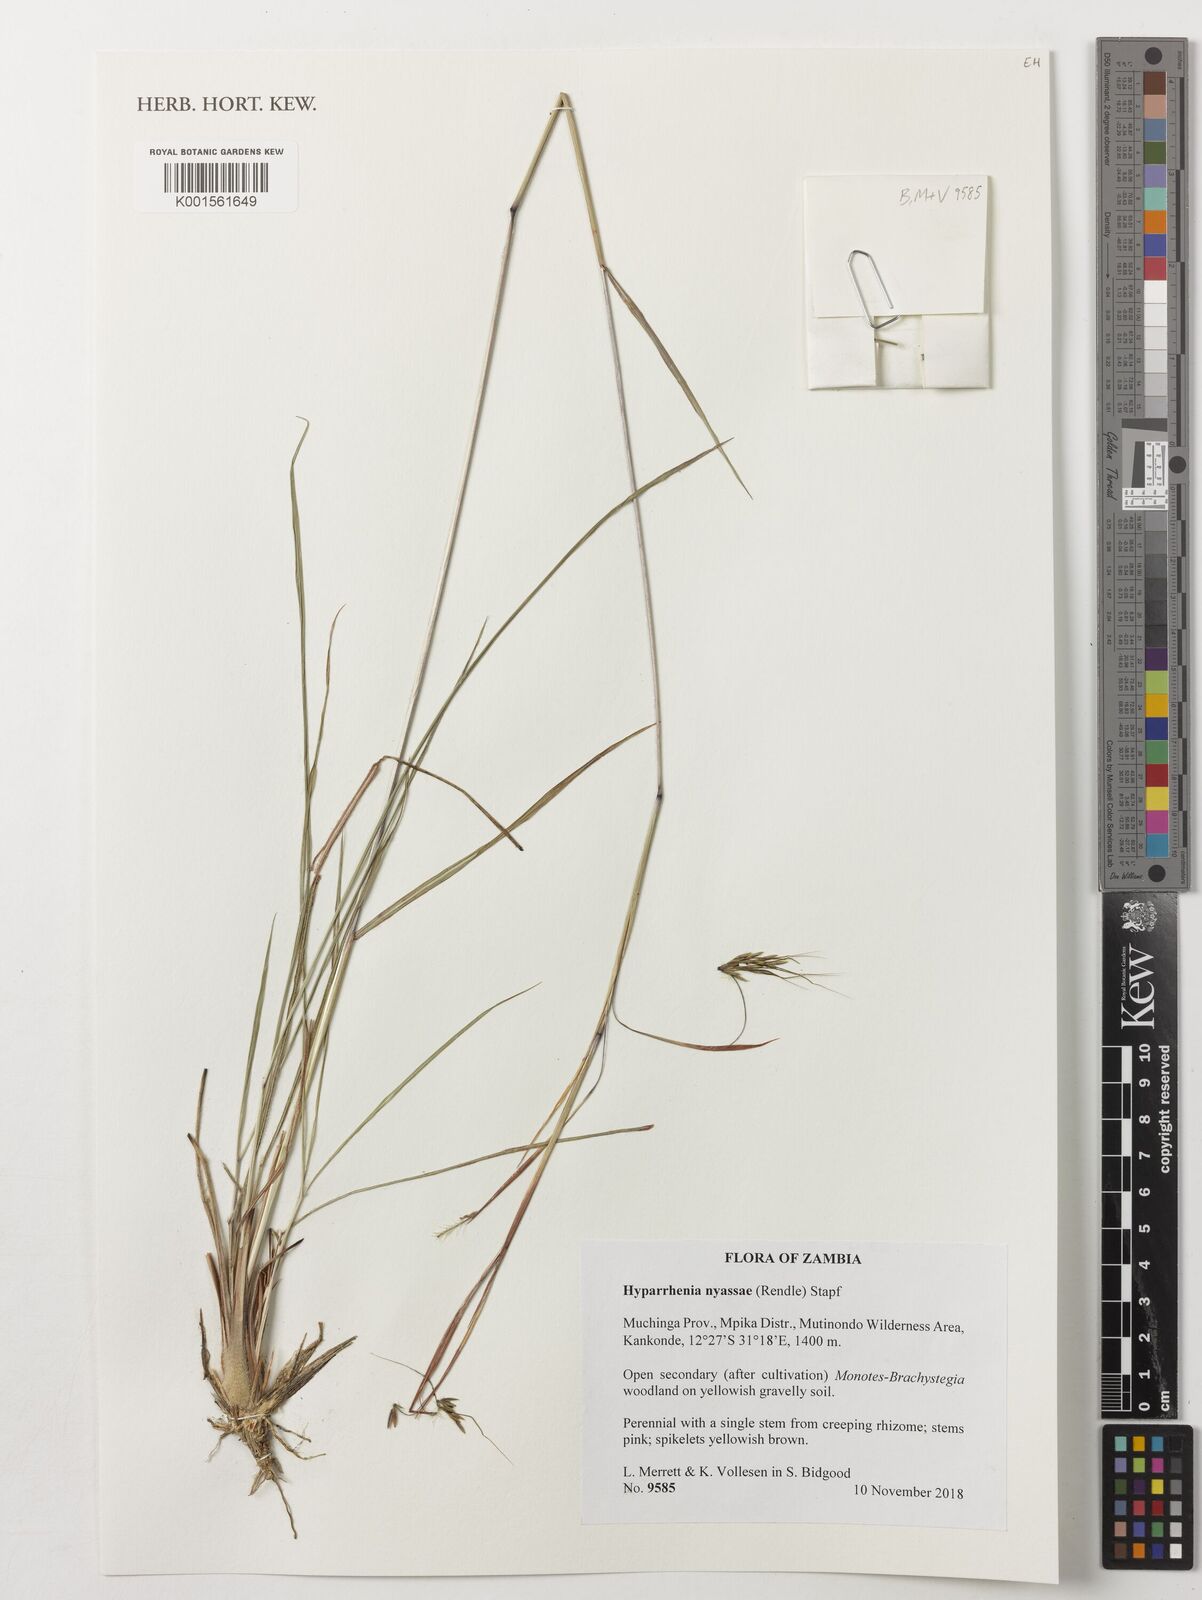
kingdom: Plantae
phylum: Tracheophyta
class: Liliopsida
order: Poales
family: Poaceae
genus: Hyparrhenia
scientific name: Hyparrhenia nyassae
